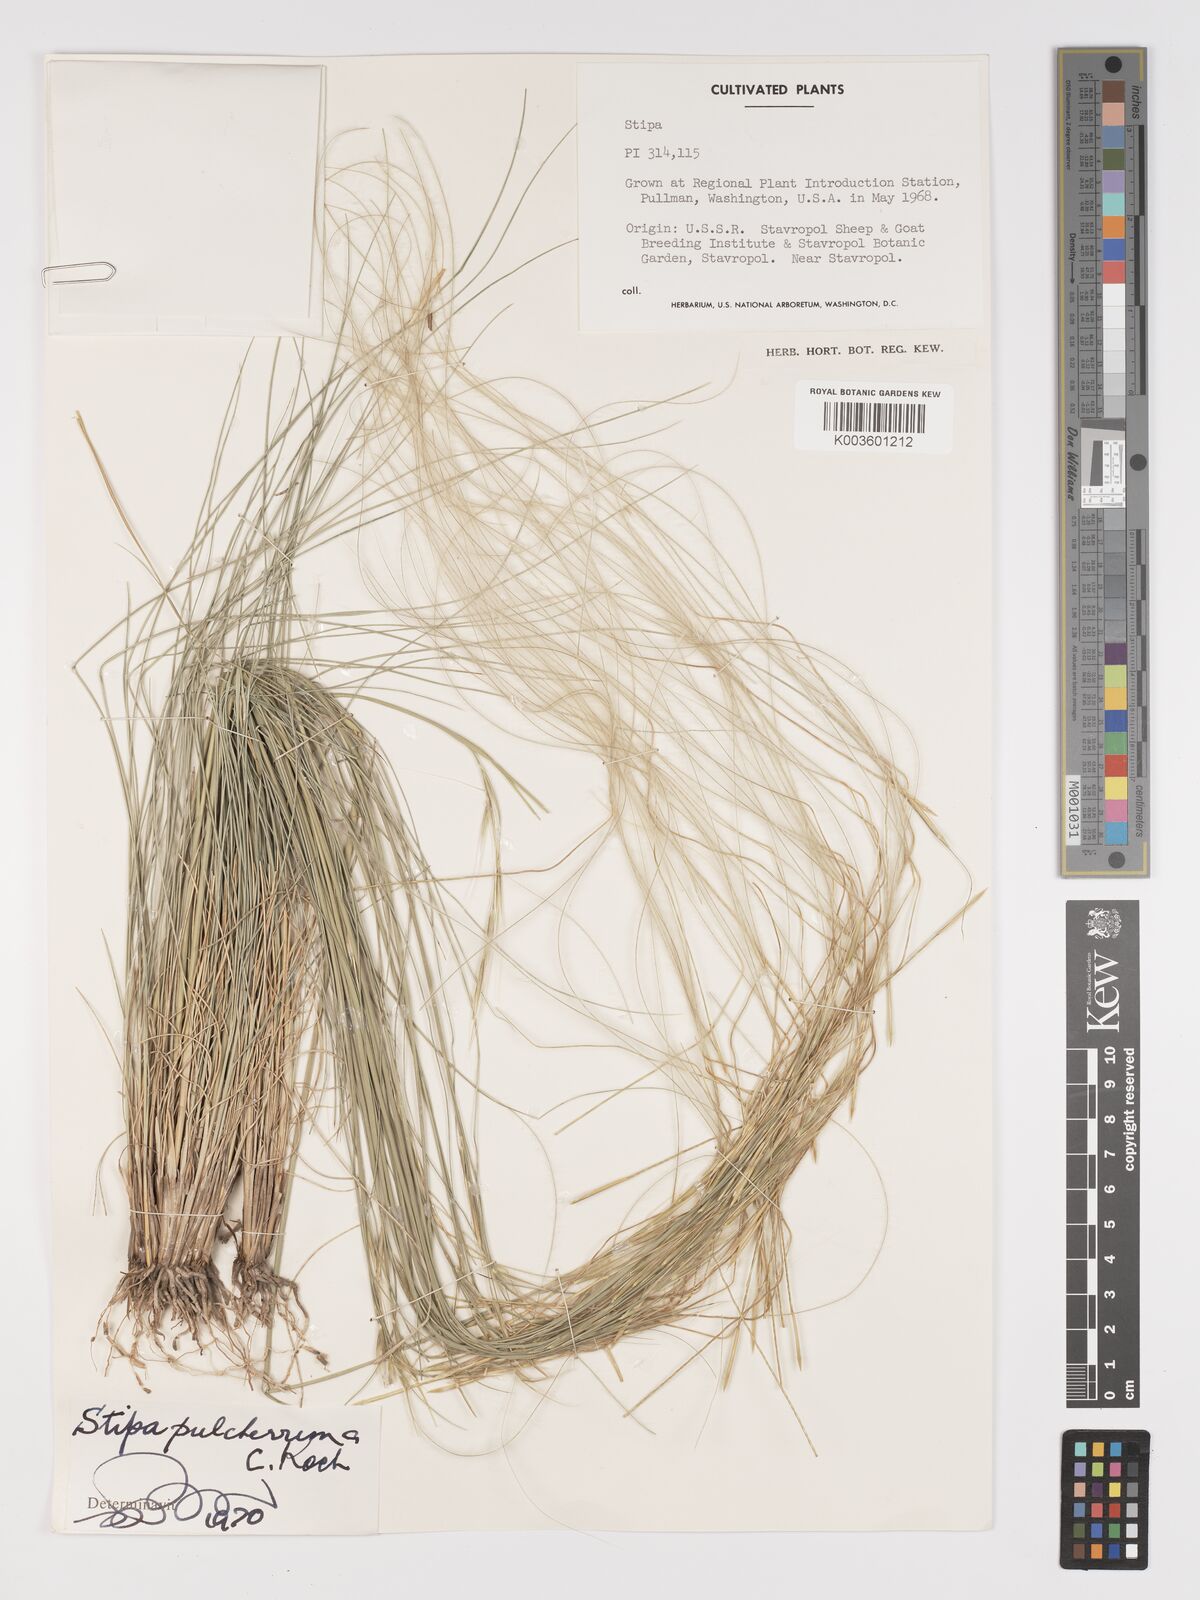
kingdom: Plantae
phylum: Tracheophyta
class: Liliopsida
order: Poales
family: Poaceae
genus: Stipa
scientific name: Stipa pulcherrima
